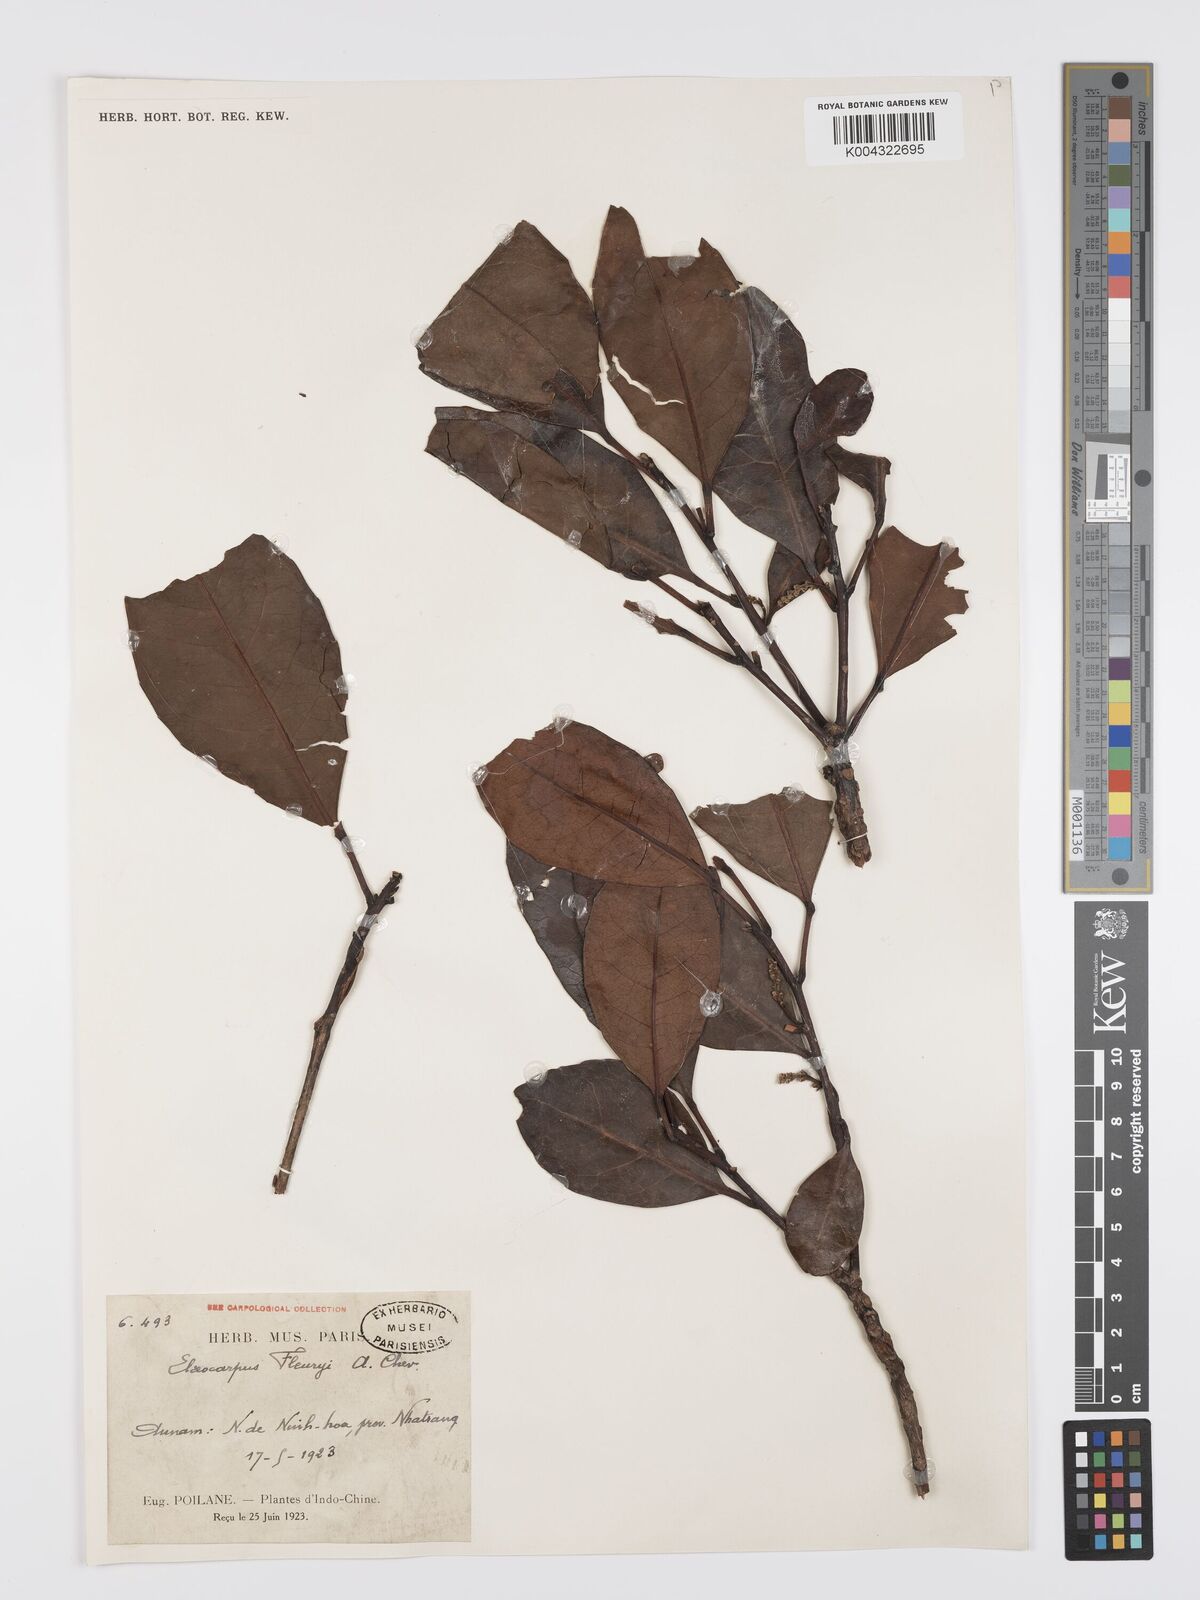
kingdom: Plantae
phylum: Tracheophyta
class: Magnoliopsida
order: Oxalidales
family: Elaeocarpaceae
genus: Elaeocarpus
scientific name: Elaeocarpus fleuryi
